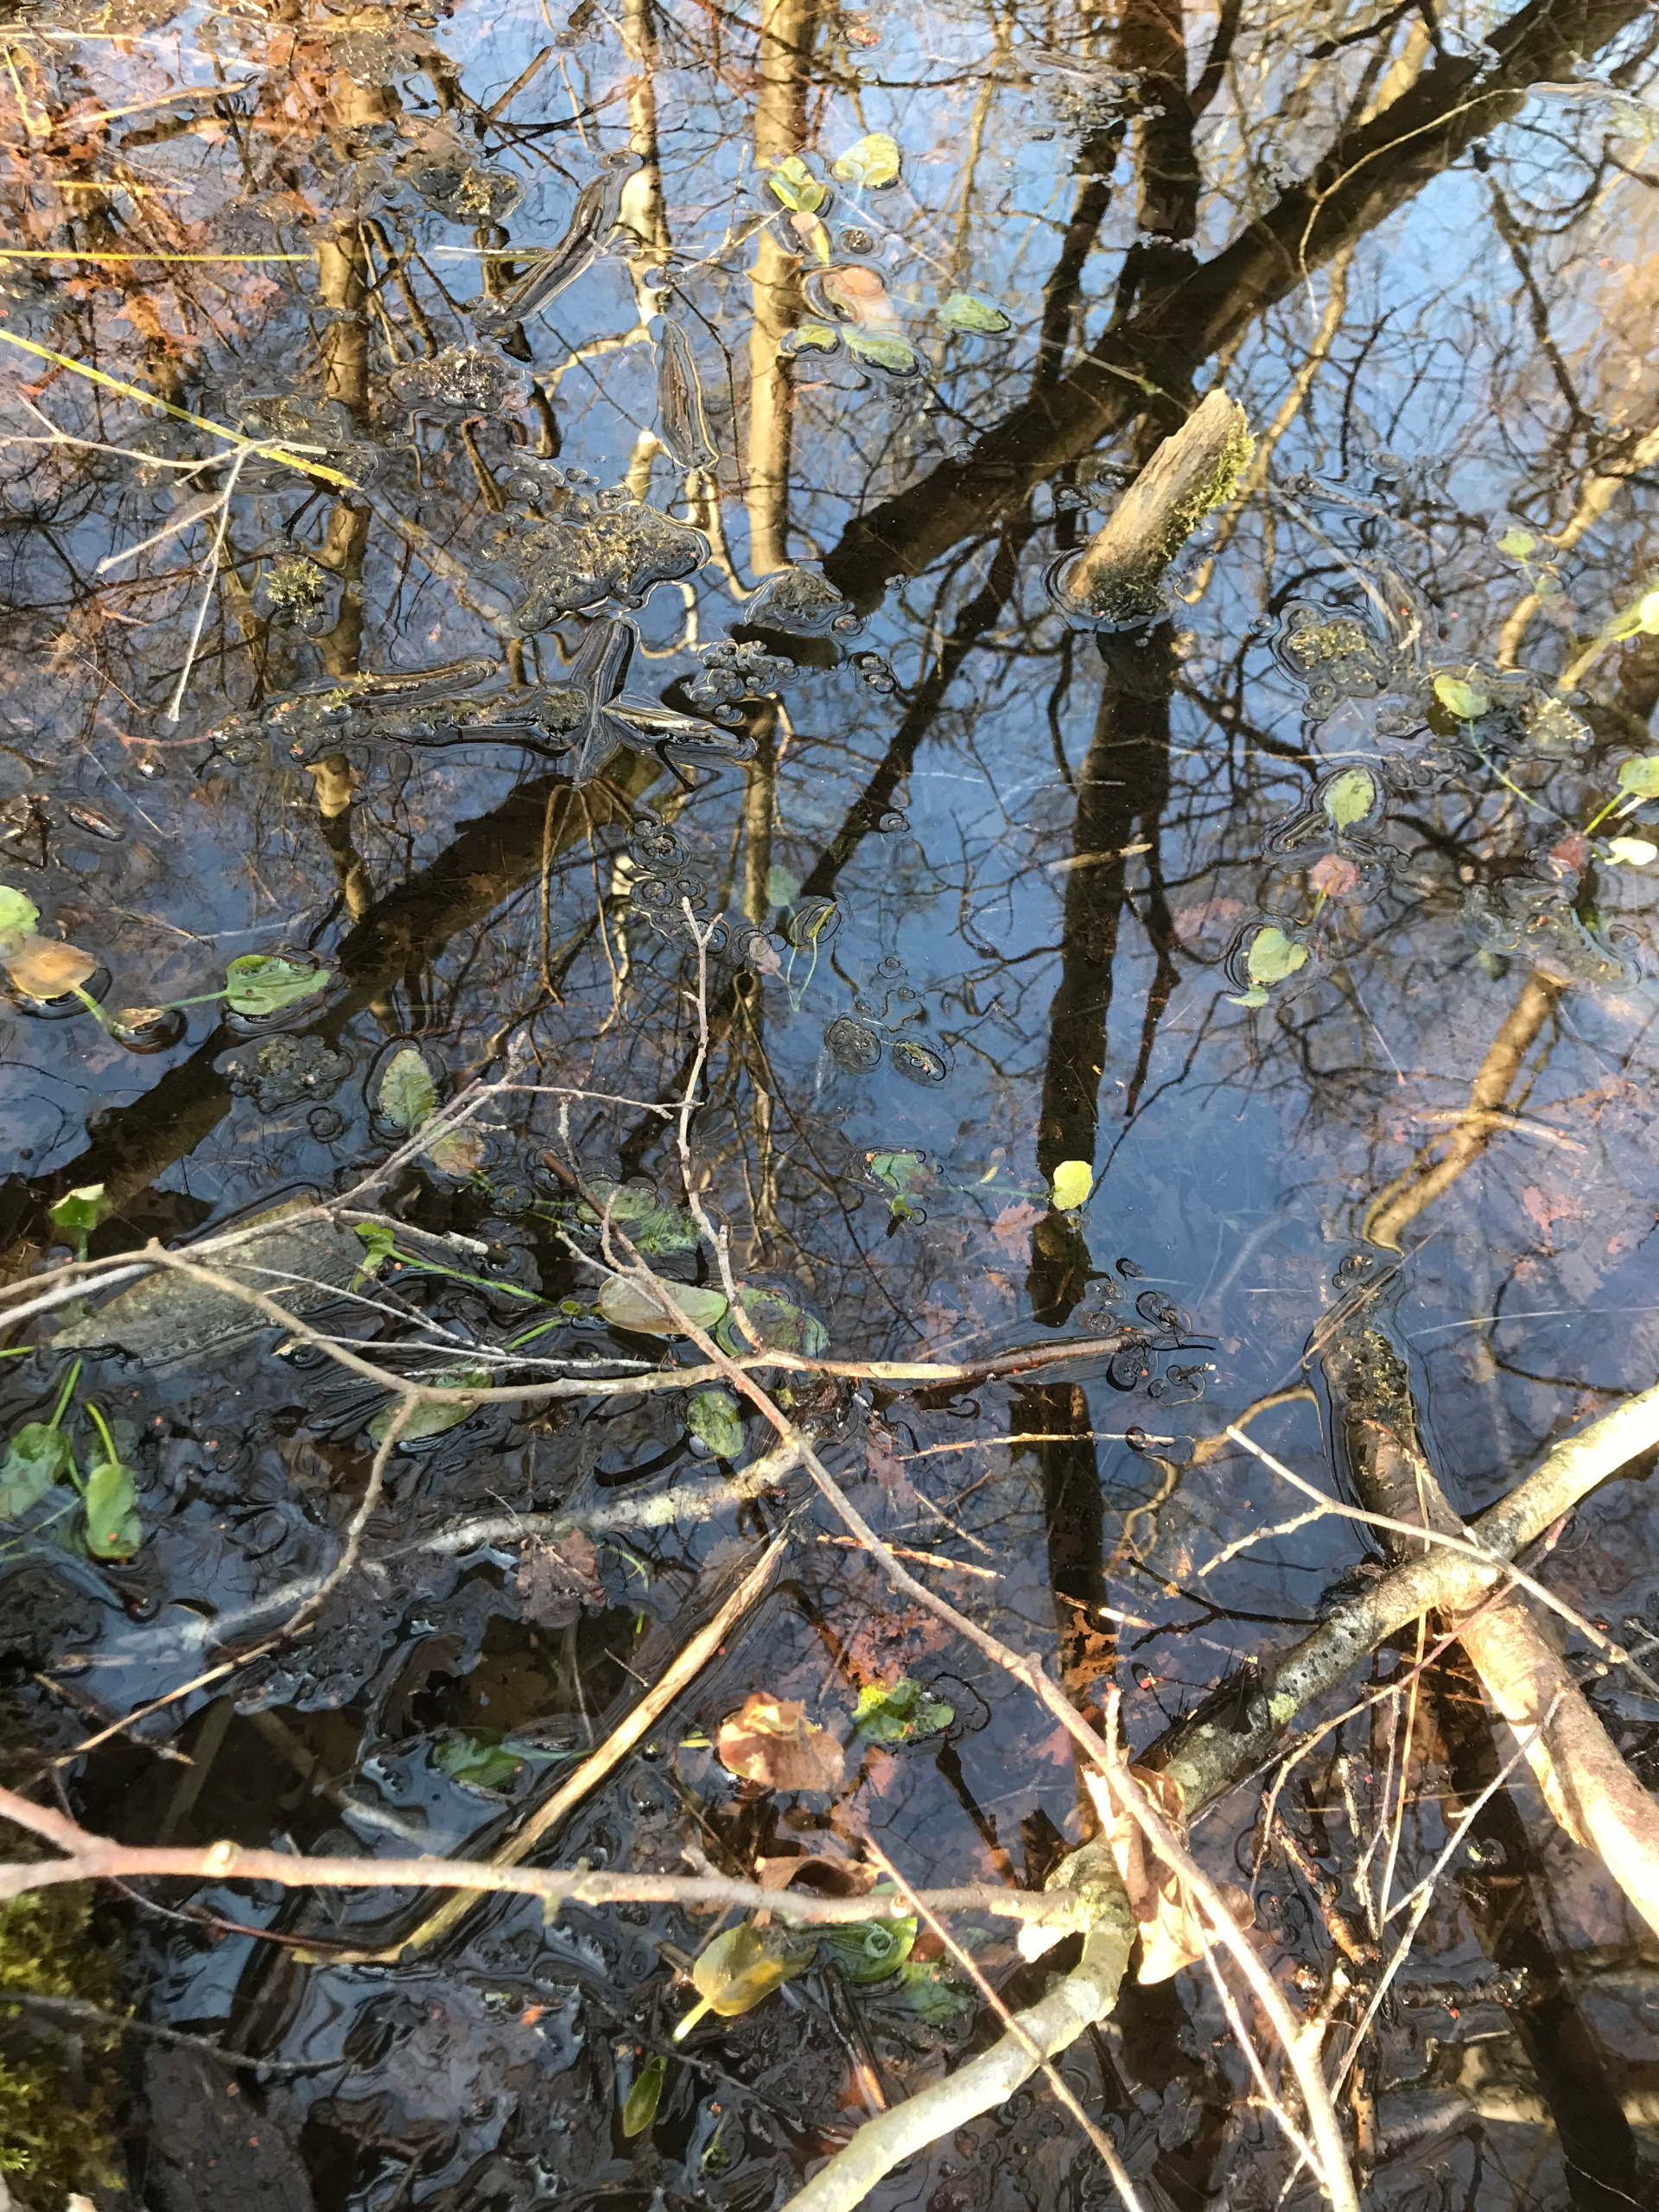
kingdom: Plantae
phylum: Tracheophyta
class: Magnoliopsida
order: Ranunculales
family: Ranunculaceae
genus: Ranunculus
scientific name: Ranunculus lingua
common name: Langbladet ranunkel
